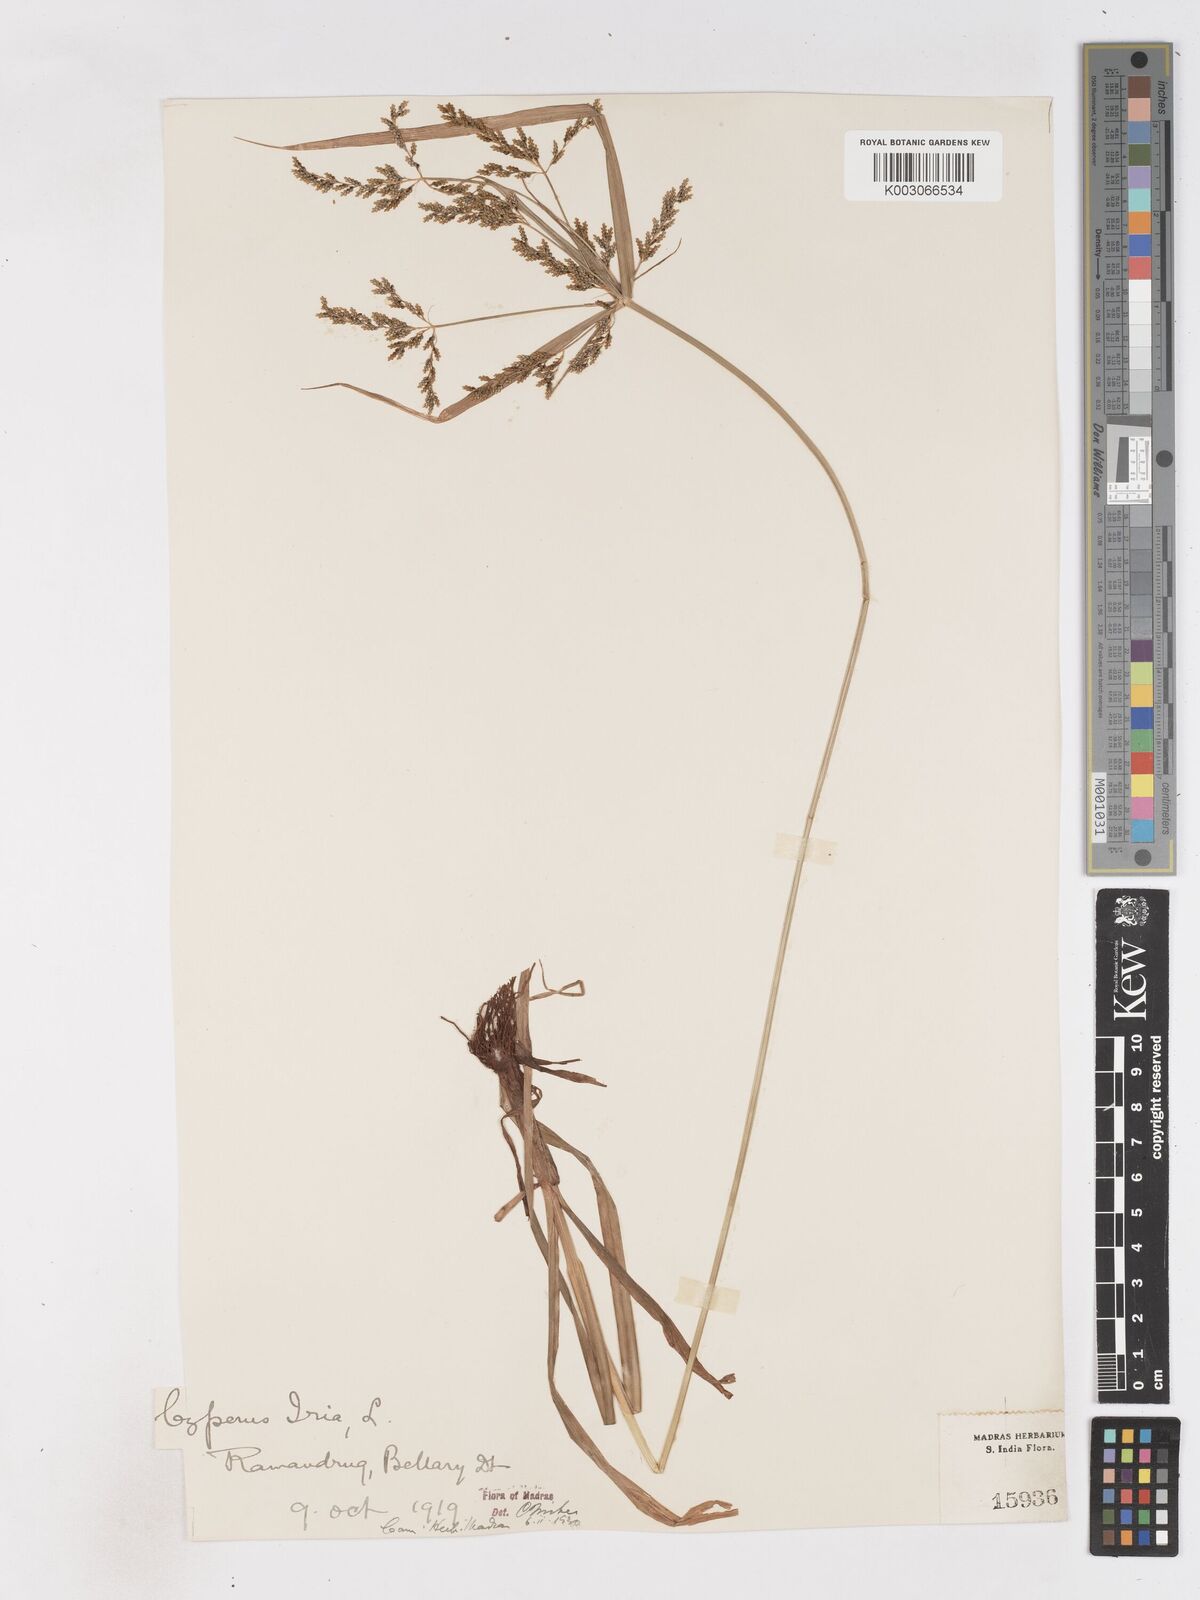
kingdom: Plantae
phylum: Tracheophyta
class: Liliopsida
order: Poales
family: Cyperaceae
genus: Cyperus
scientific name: Cyperus iria
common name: Ricefield flatsedge
